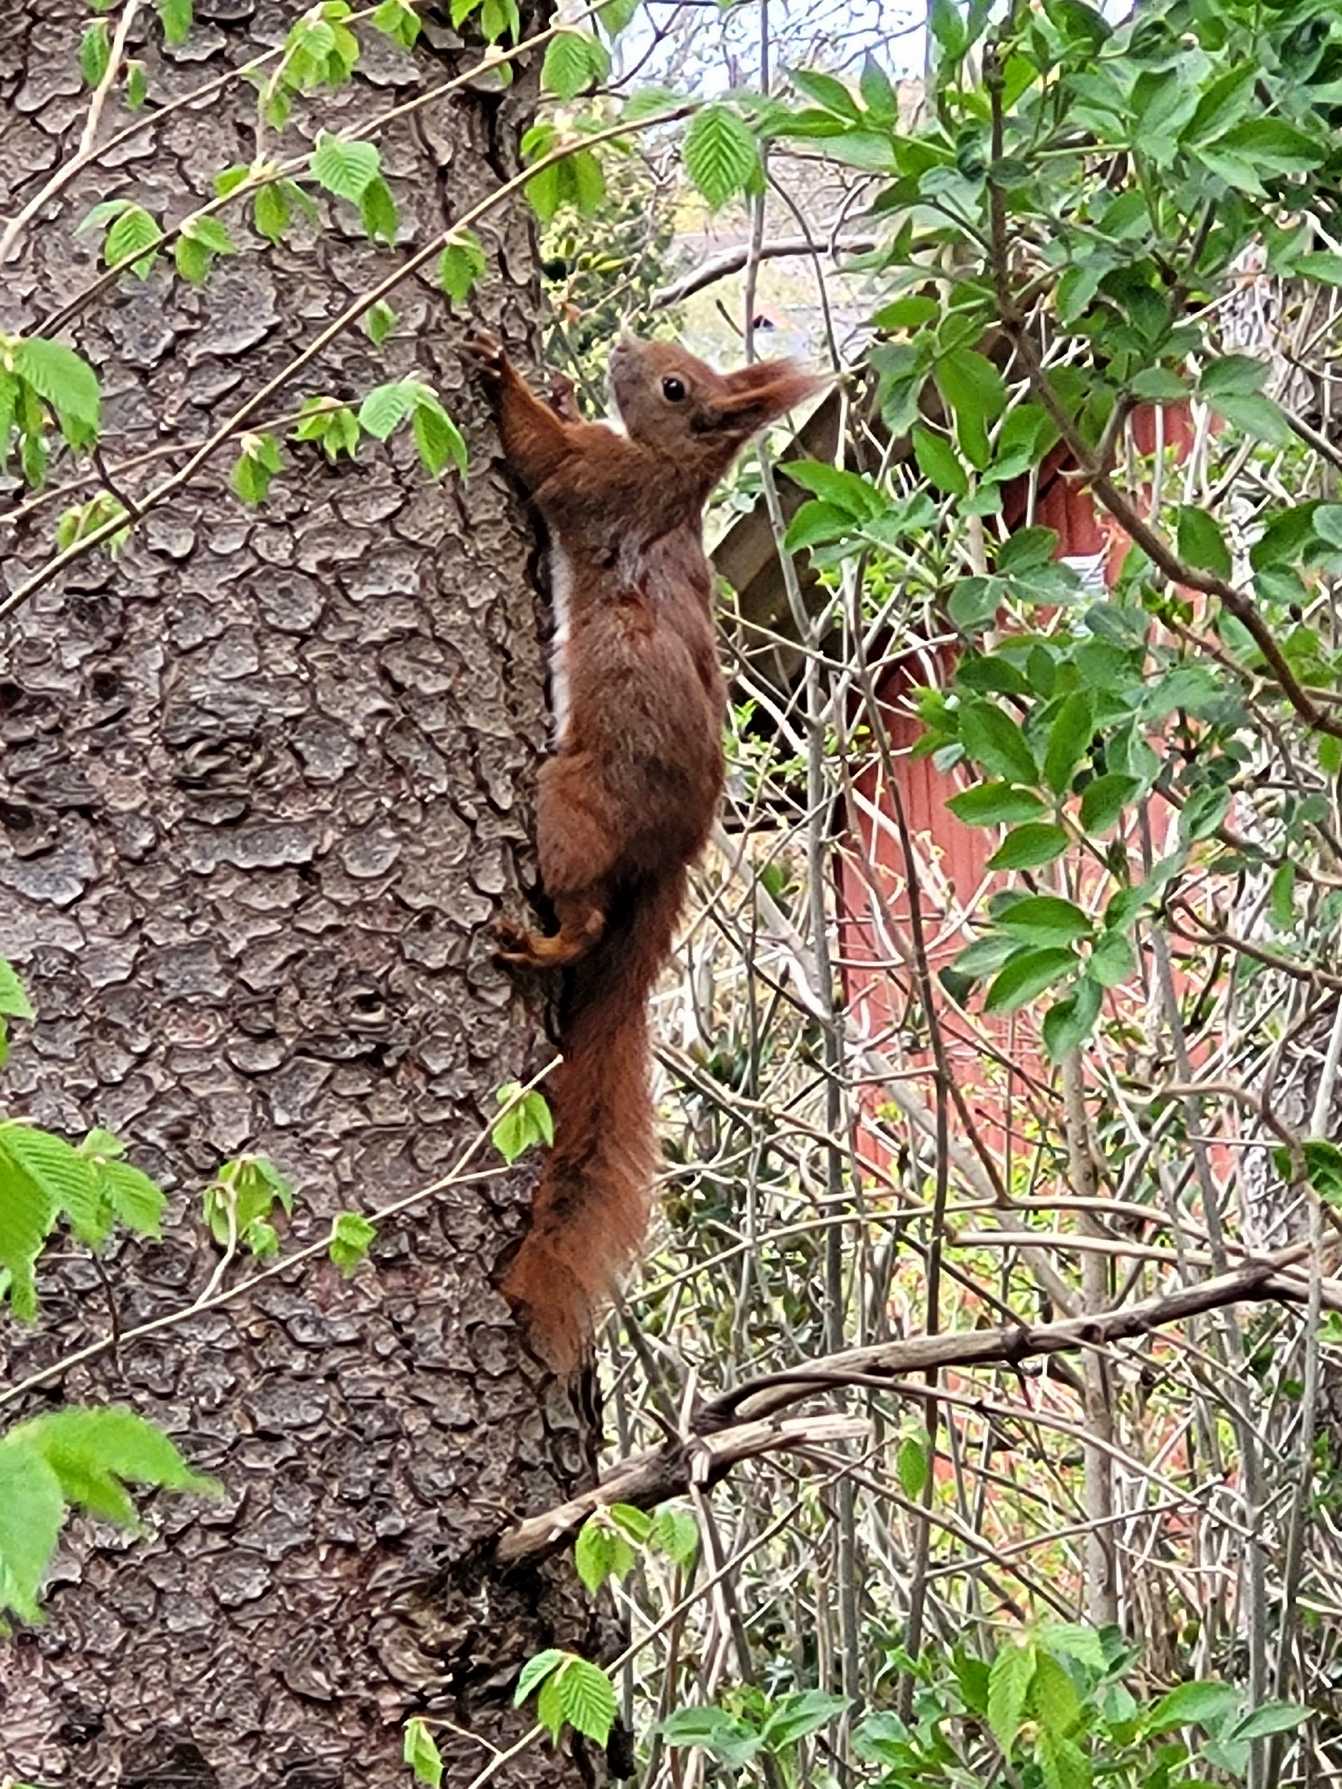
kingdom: Animalia
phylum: Chordata
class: Mammalia
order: Rodentia
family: Sciuridae
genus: Sciurus
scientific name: Sciurus vulgaris
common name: Egern
